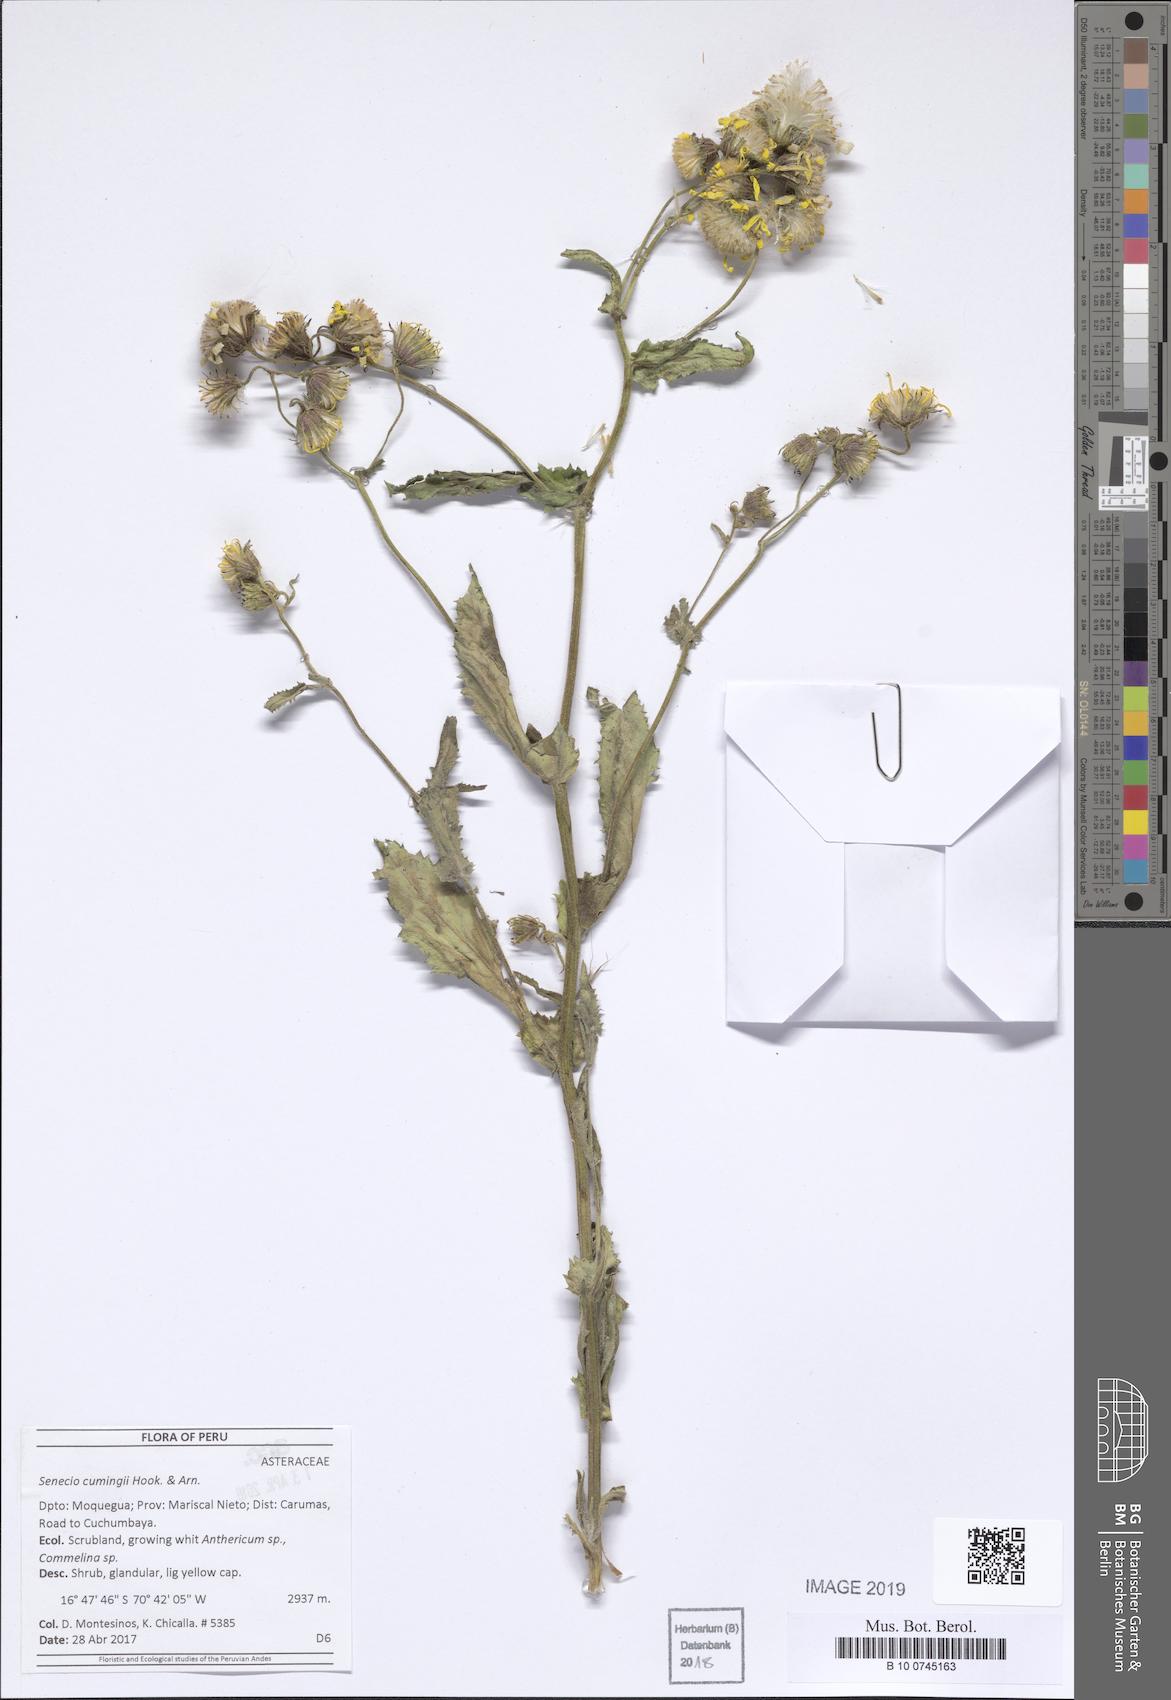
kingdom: Plantae
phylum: Tracheophyta
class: Magnoliopsida
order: Asterales
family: Asteraceae
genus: Senecio
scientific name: Senecio cumingii
